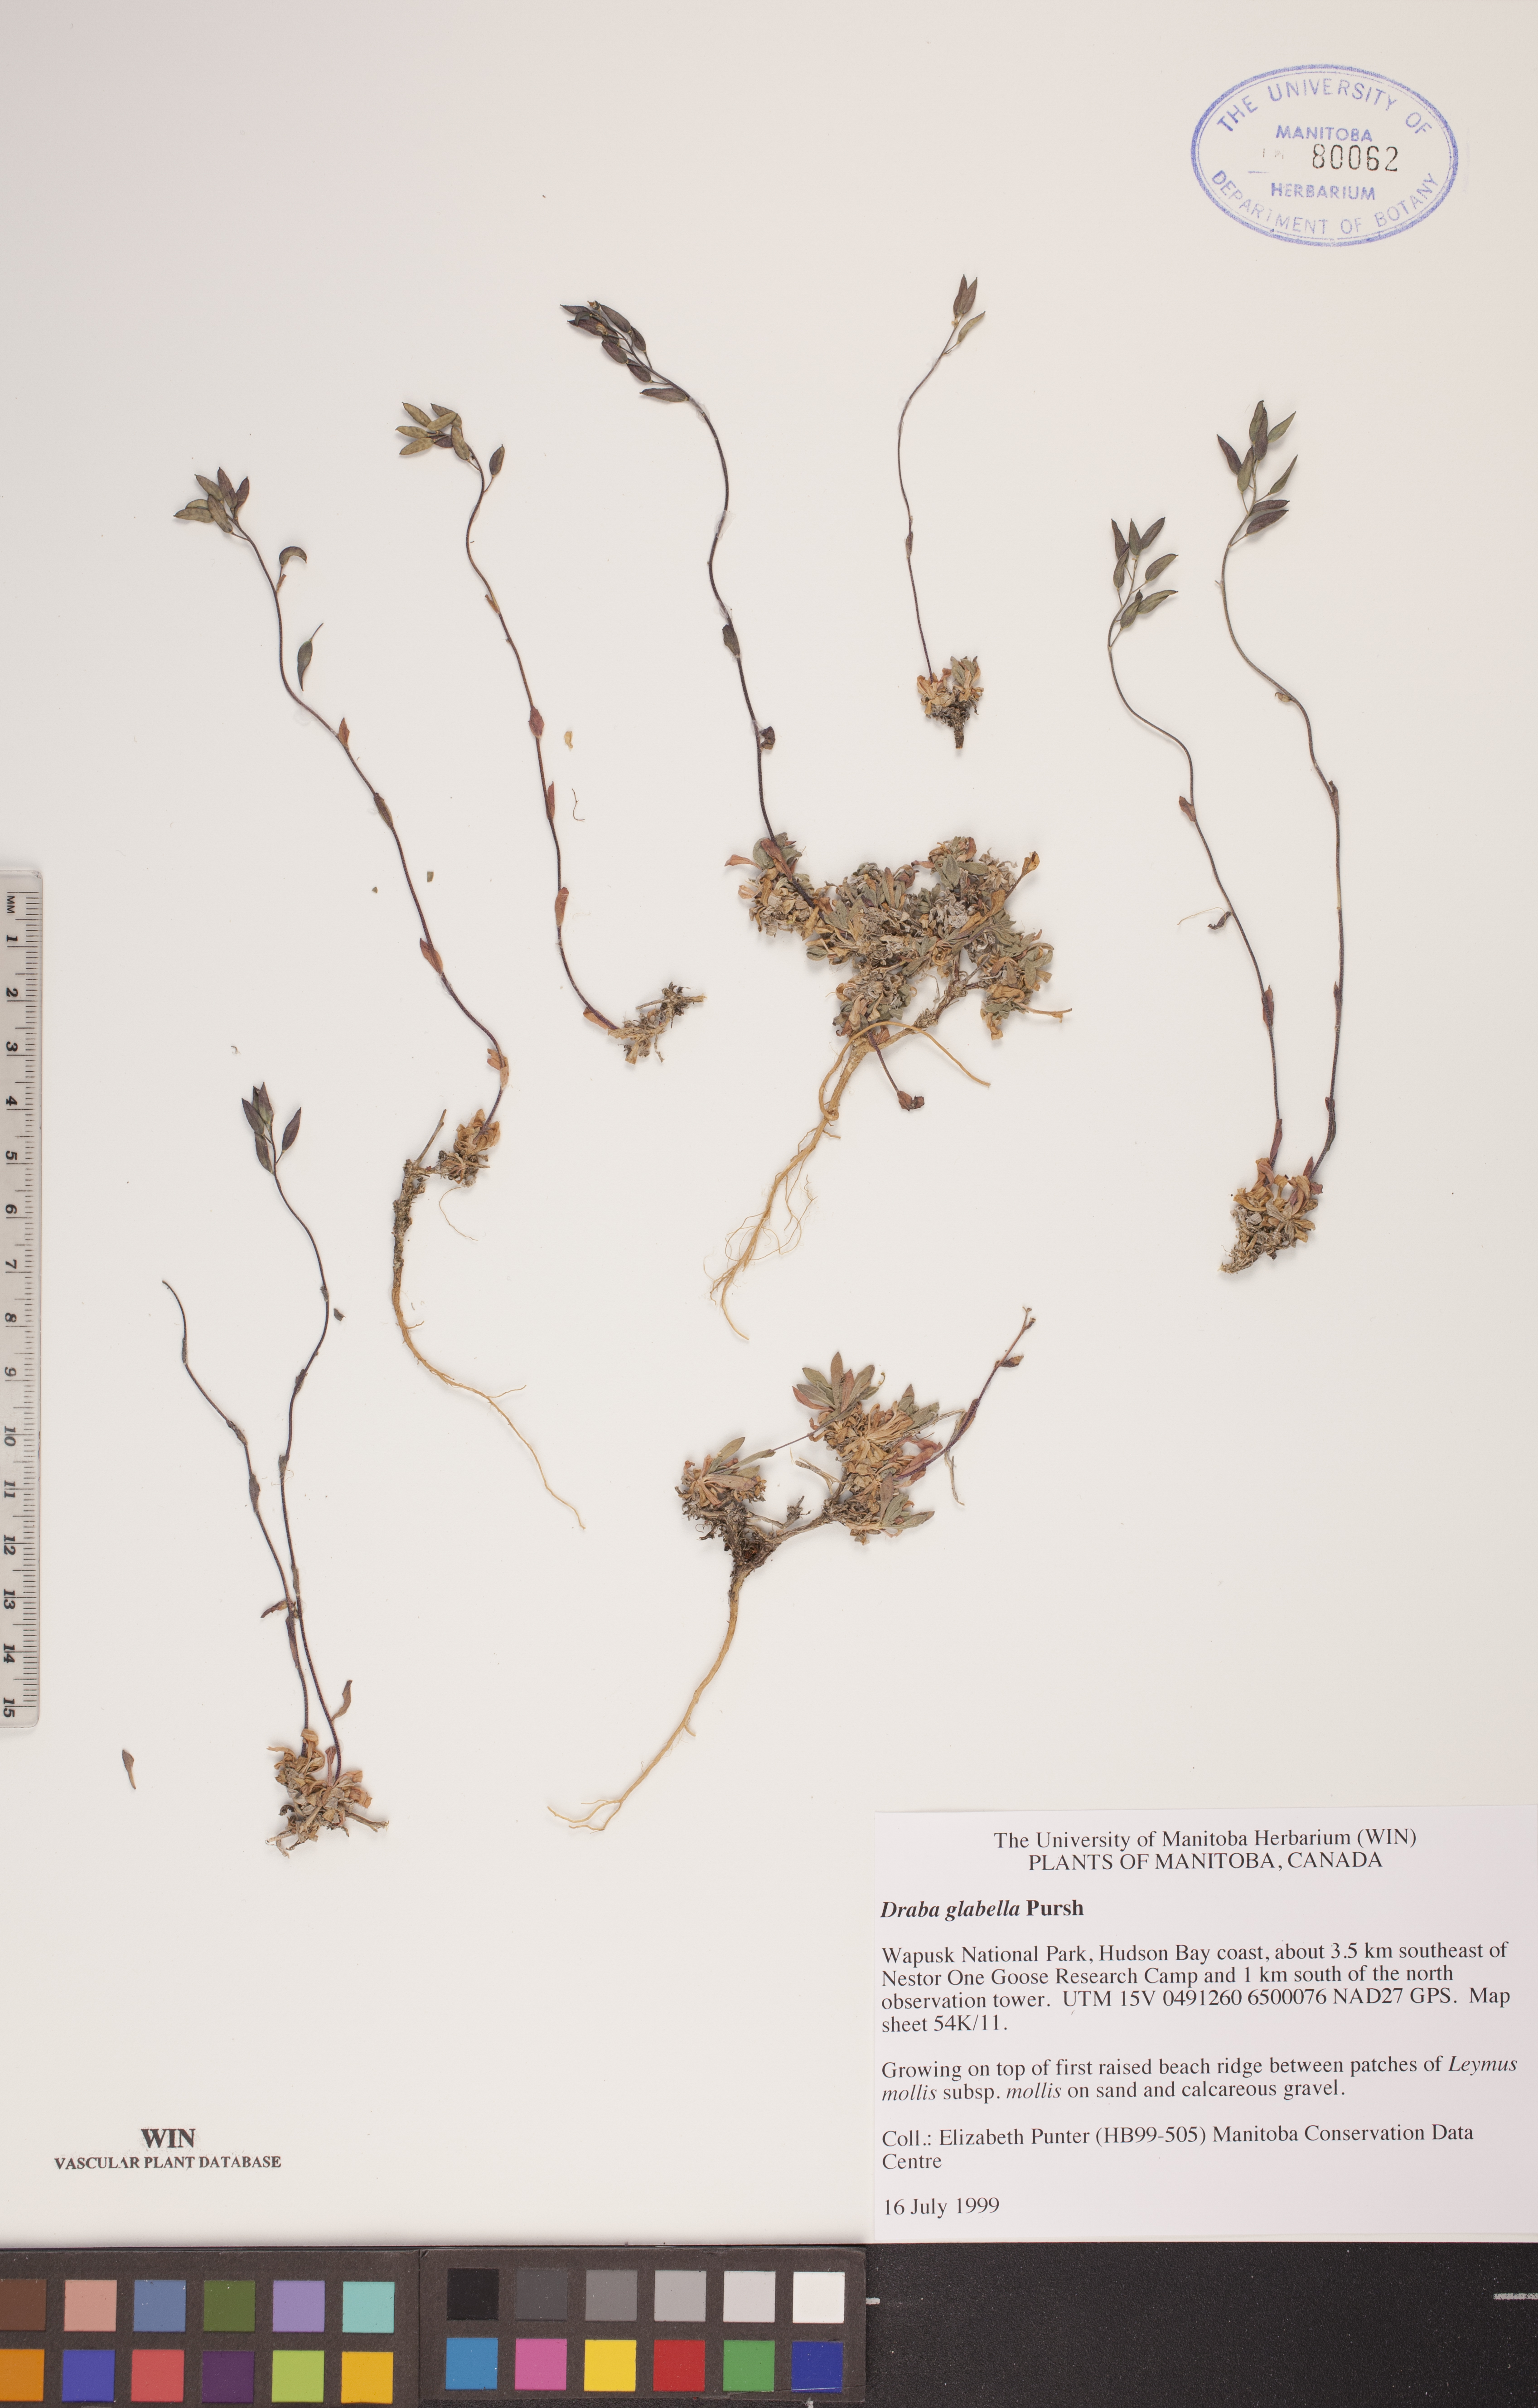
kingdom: Plantae
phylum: Tracheophyta
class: Magnoliopsida
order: Brassicales
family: Brassicaceae
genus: Draba
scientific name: Draba glabella
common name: Glaucous draba
